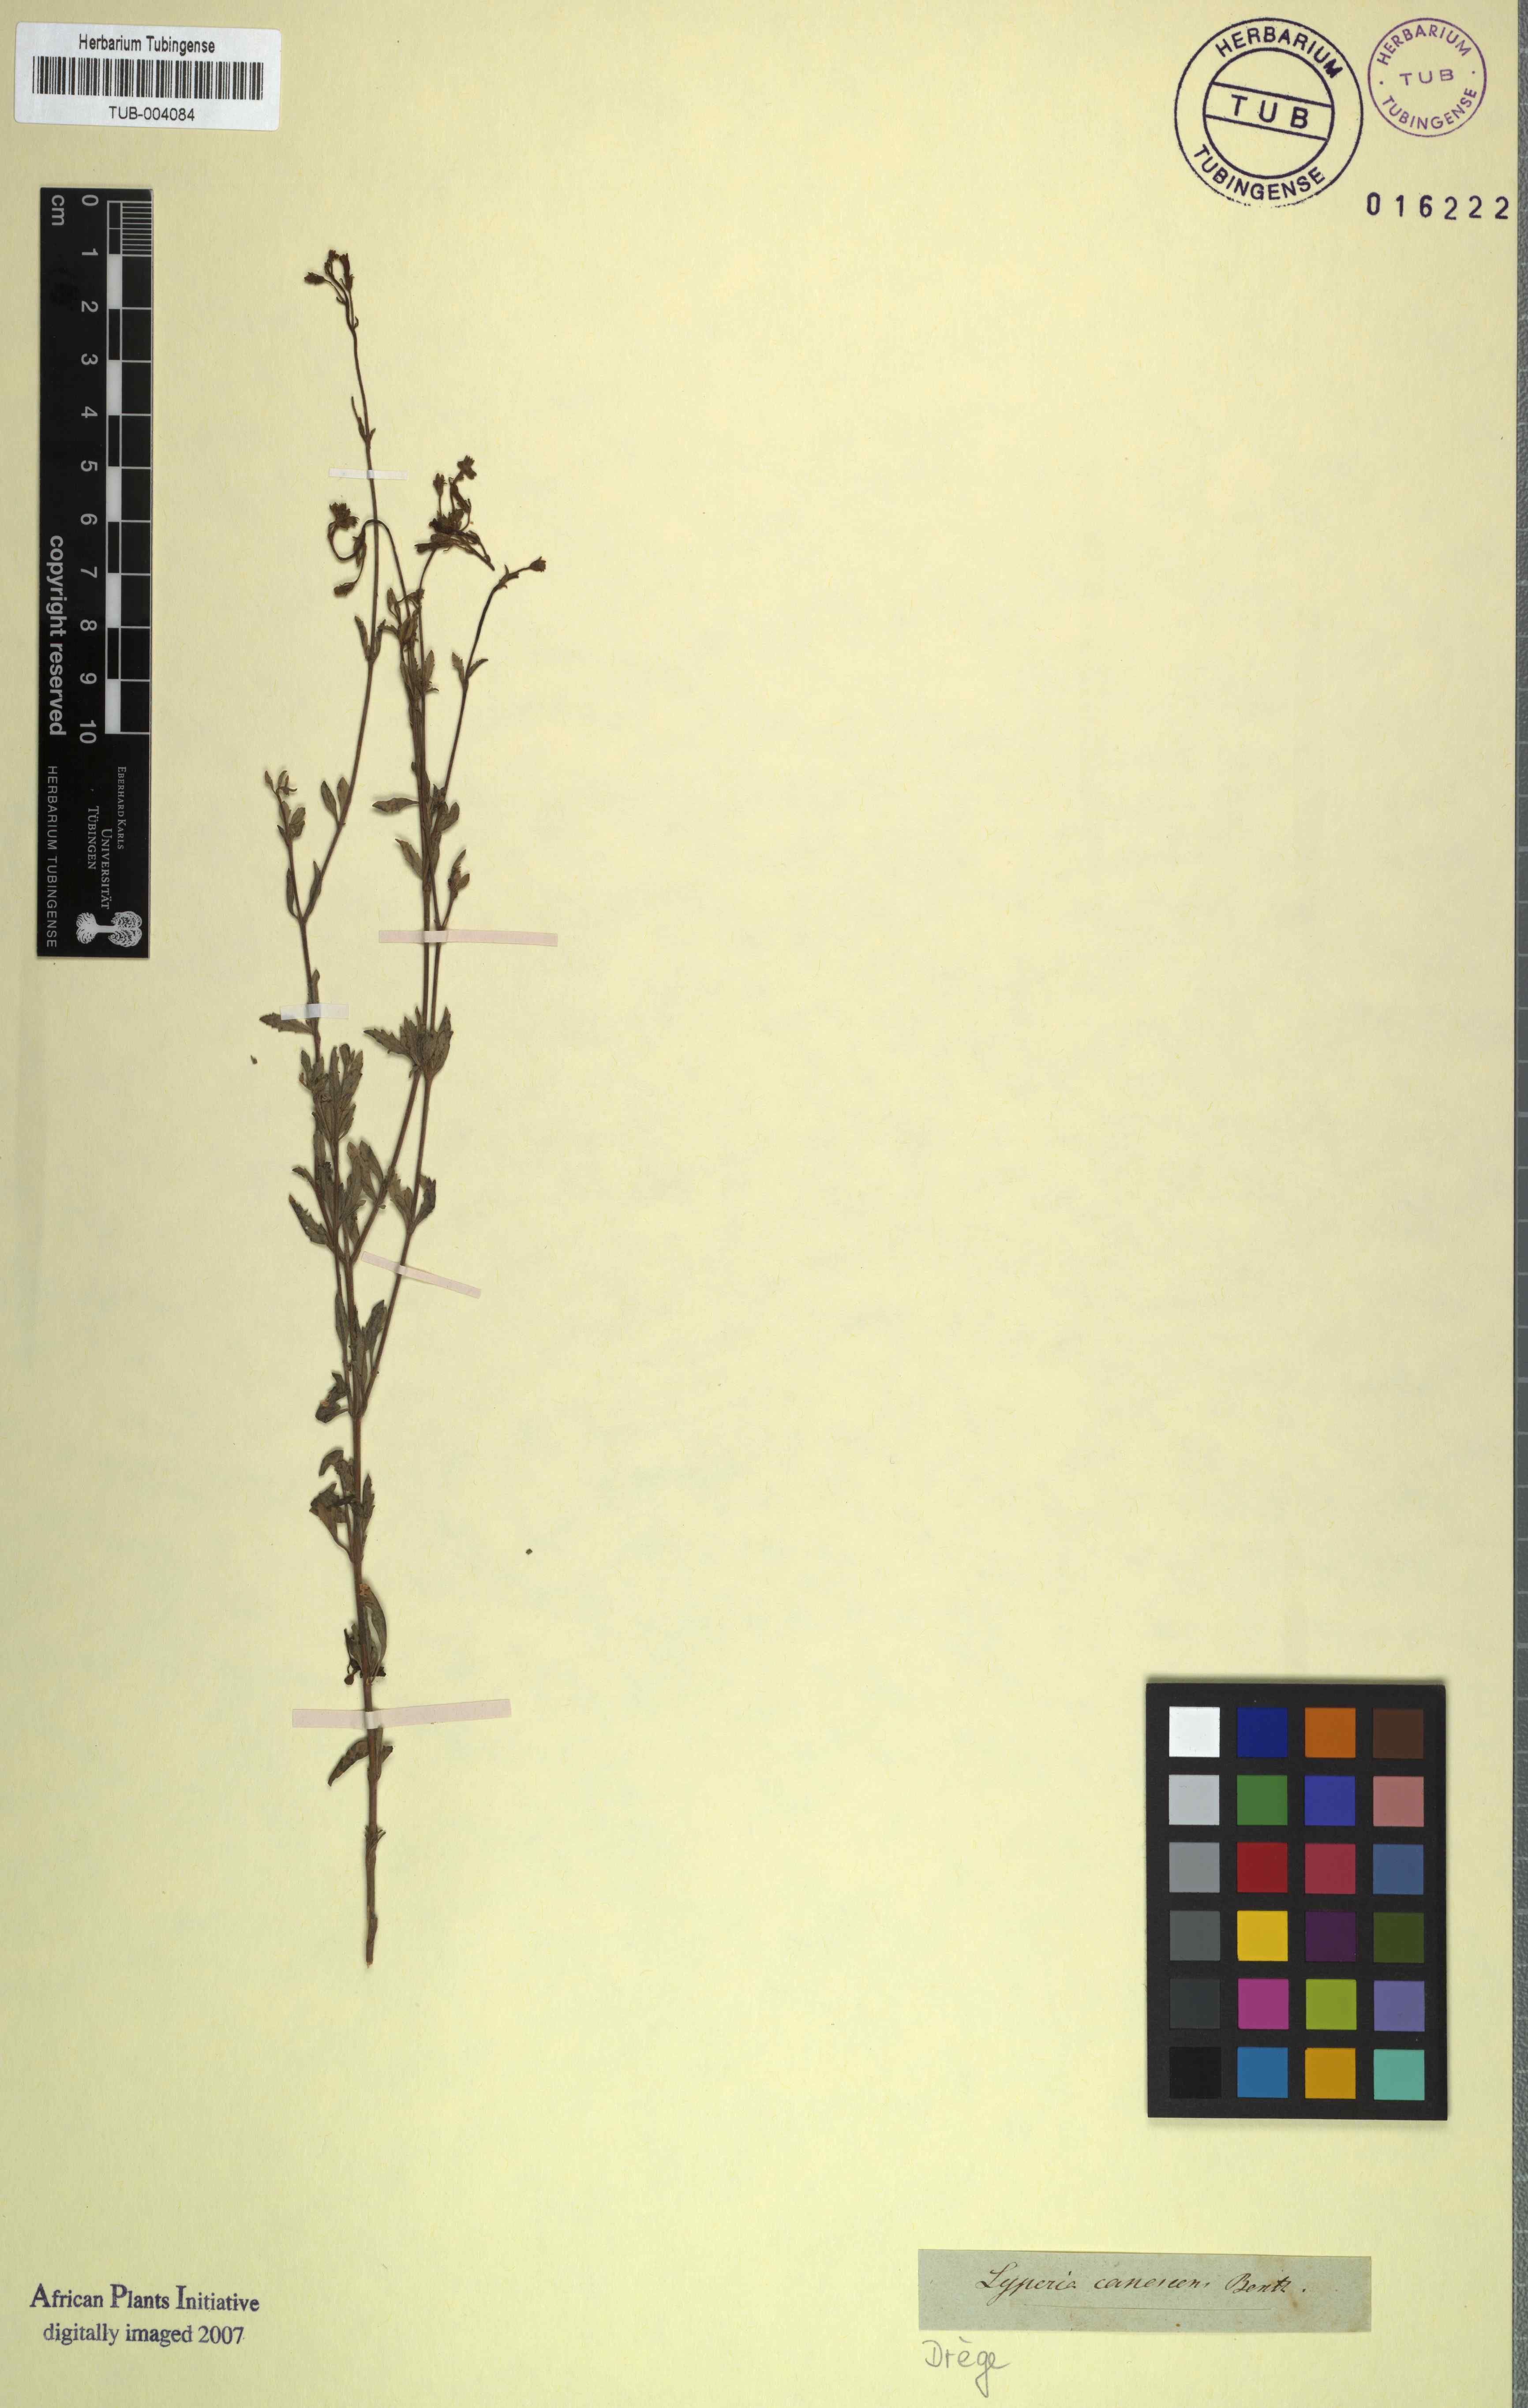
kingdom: Plantae
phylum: Tracheophyta
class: Magnoliopsida
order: Lamiales
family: Scrophulariaceae
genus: Jamesbrittenia
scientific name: Jamesbrittenia canescens
